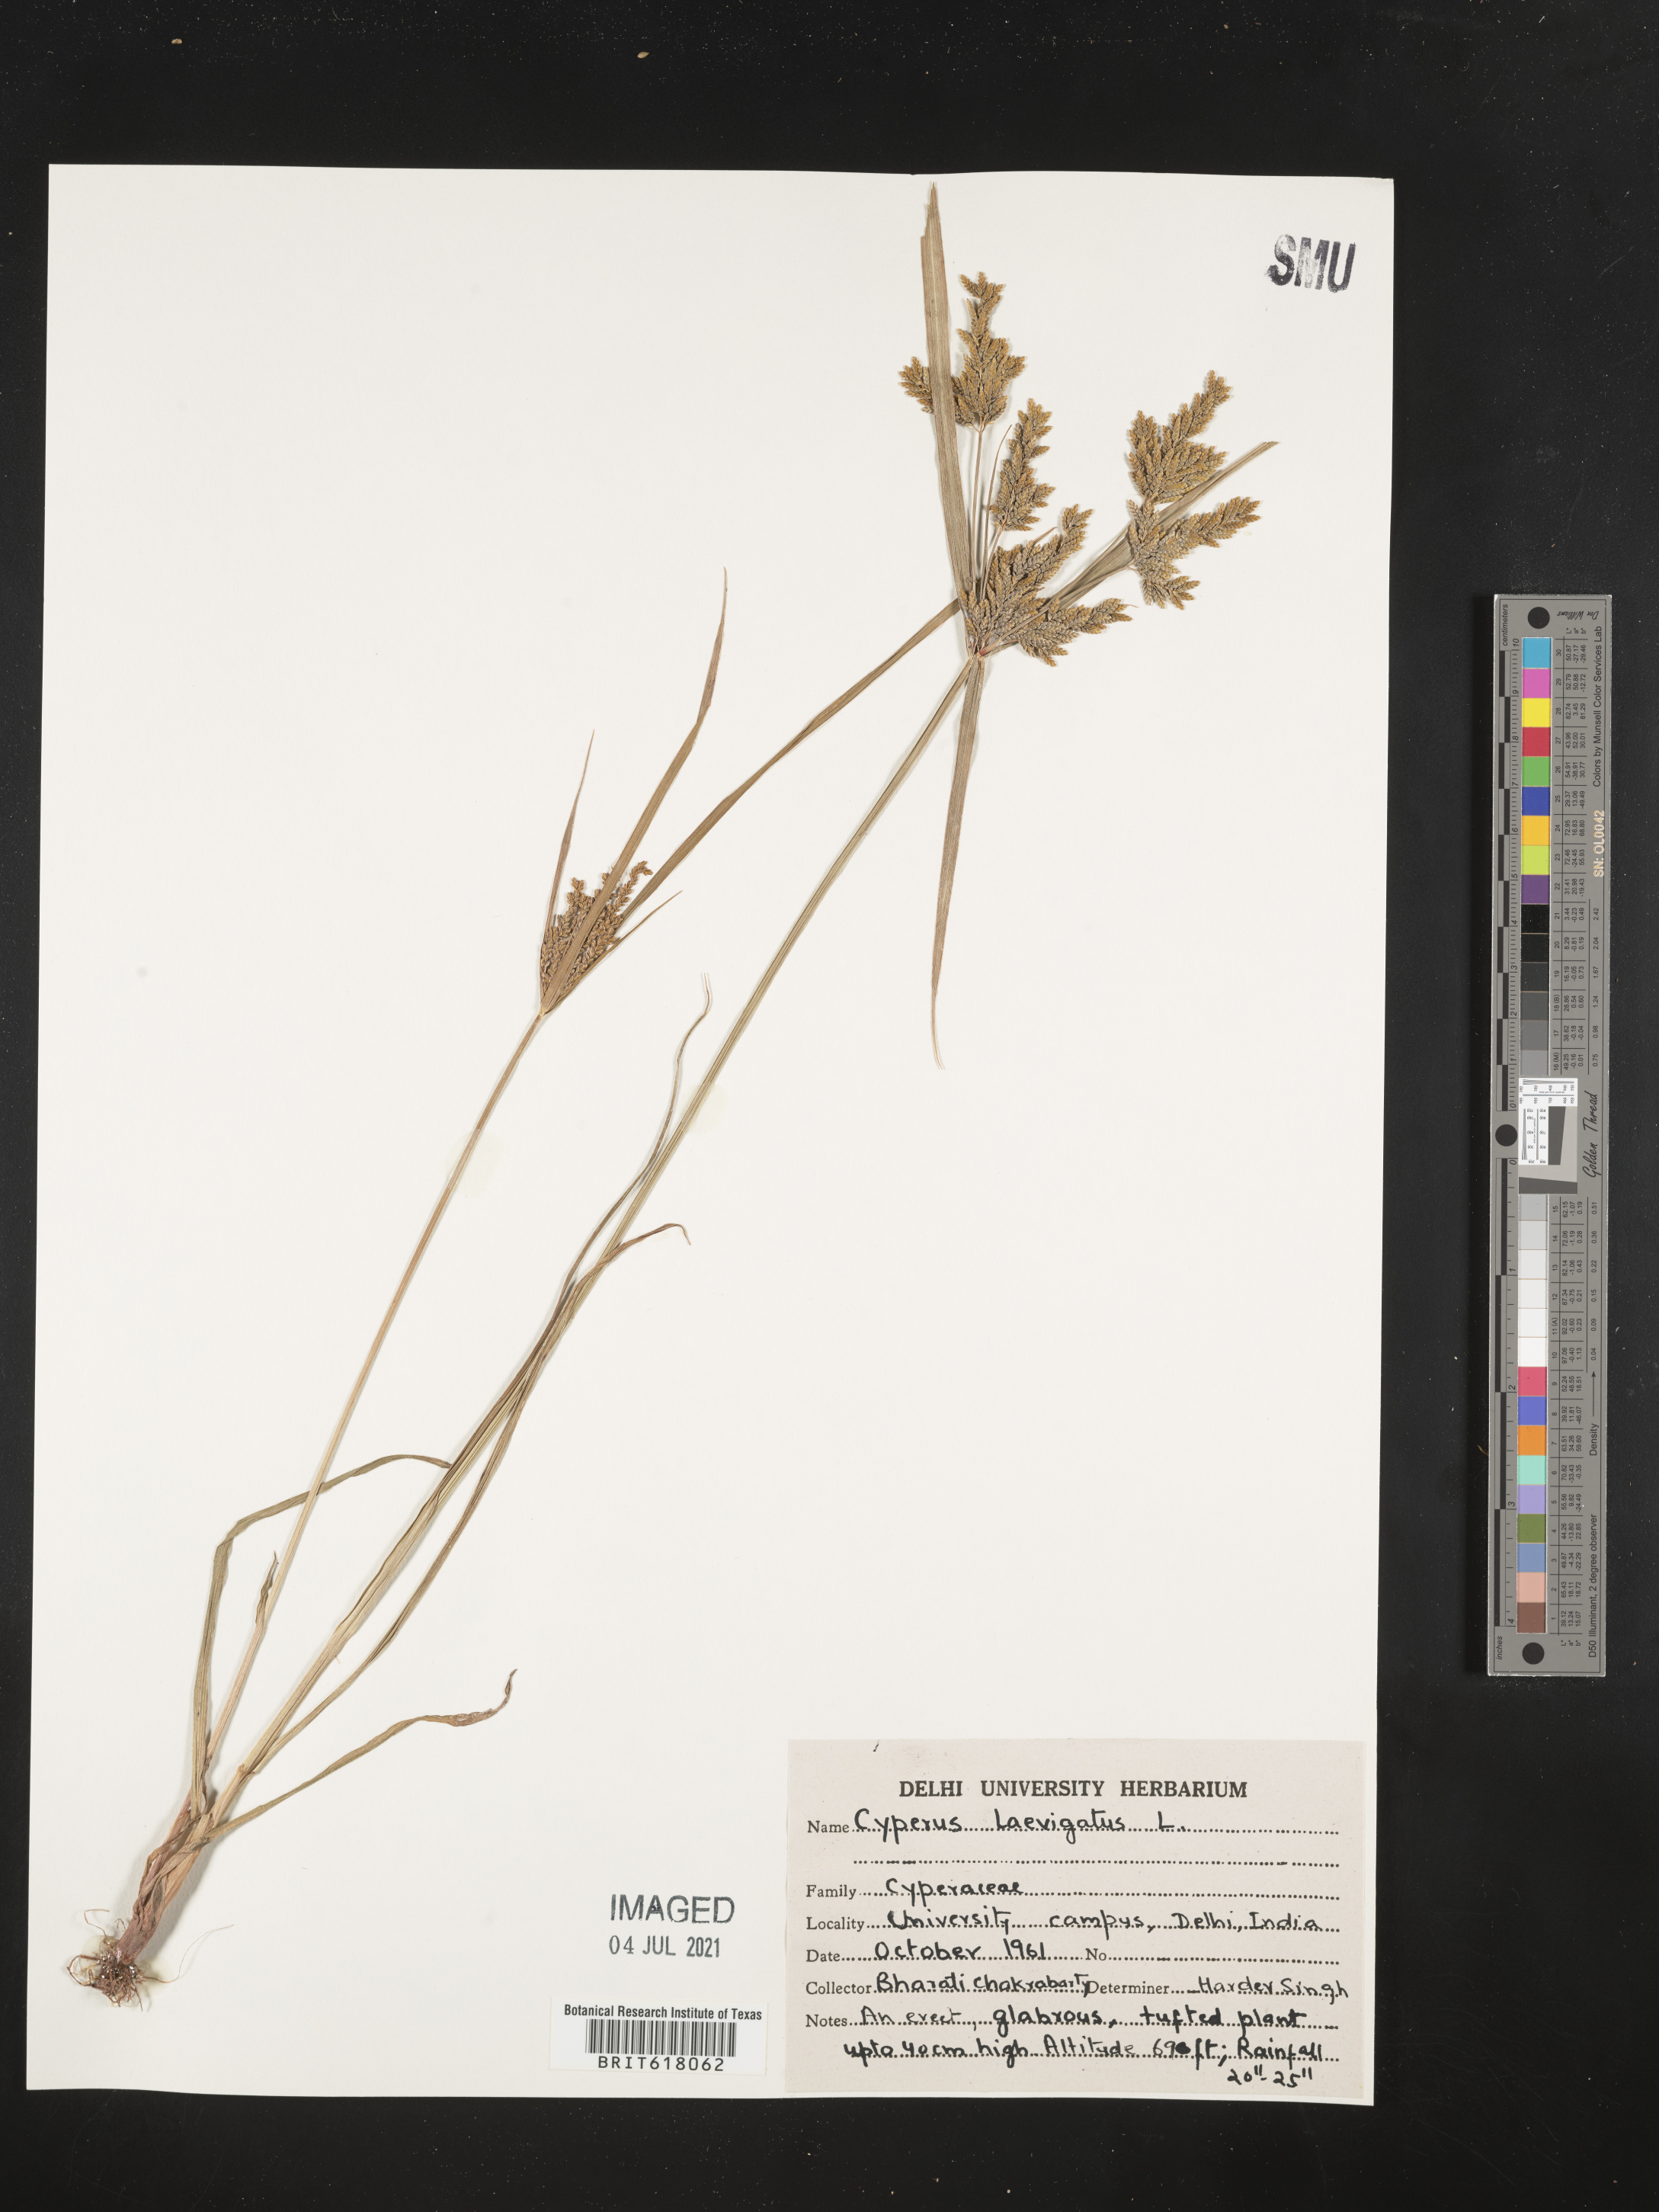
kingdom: Plantae
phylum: Tracheophyta
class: Liliopsida
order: Poales
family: Cyperaceae
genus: Cyperus
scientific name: Cyperus laevigatus
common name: Smooth flat sedge
